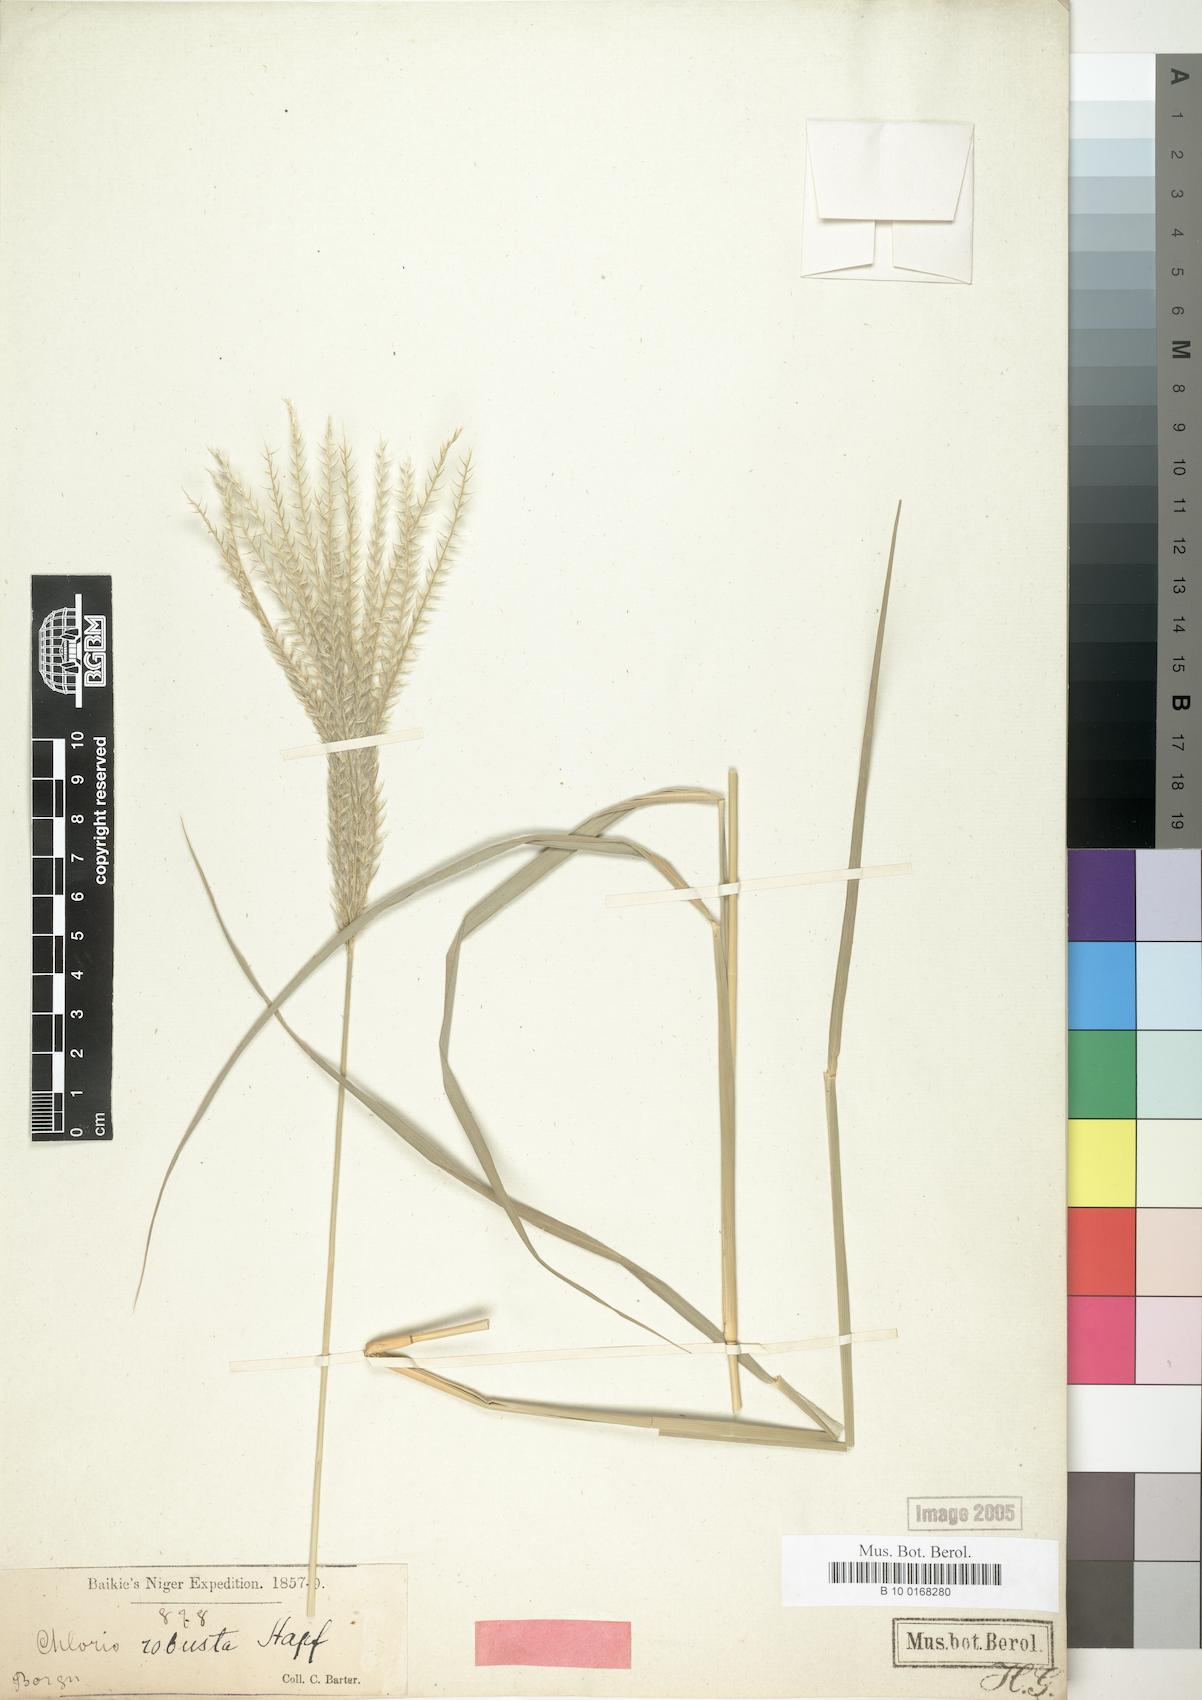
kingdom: Plantae
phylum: Tracheophyta
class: Liliopsida
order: Poales
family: Poaceae
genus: Chloris
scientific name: Chloris robusta
